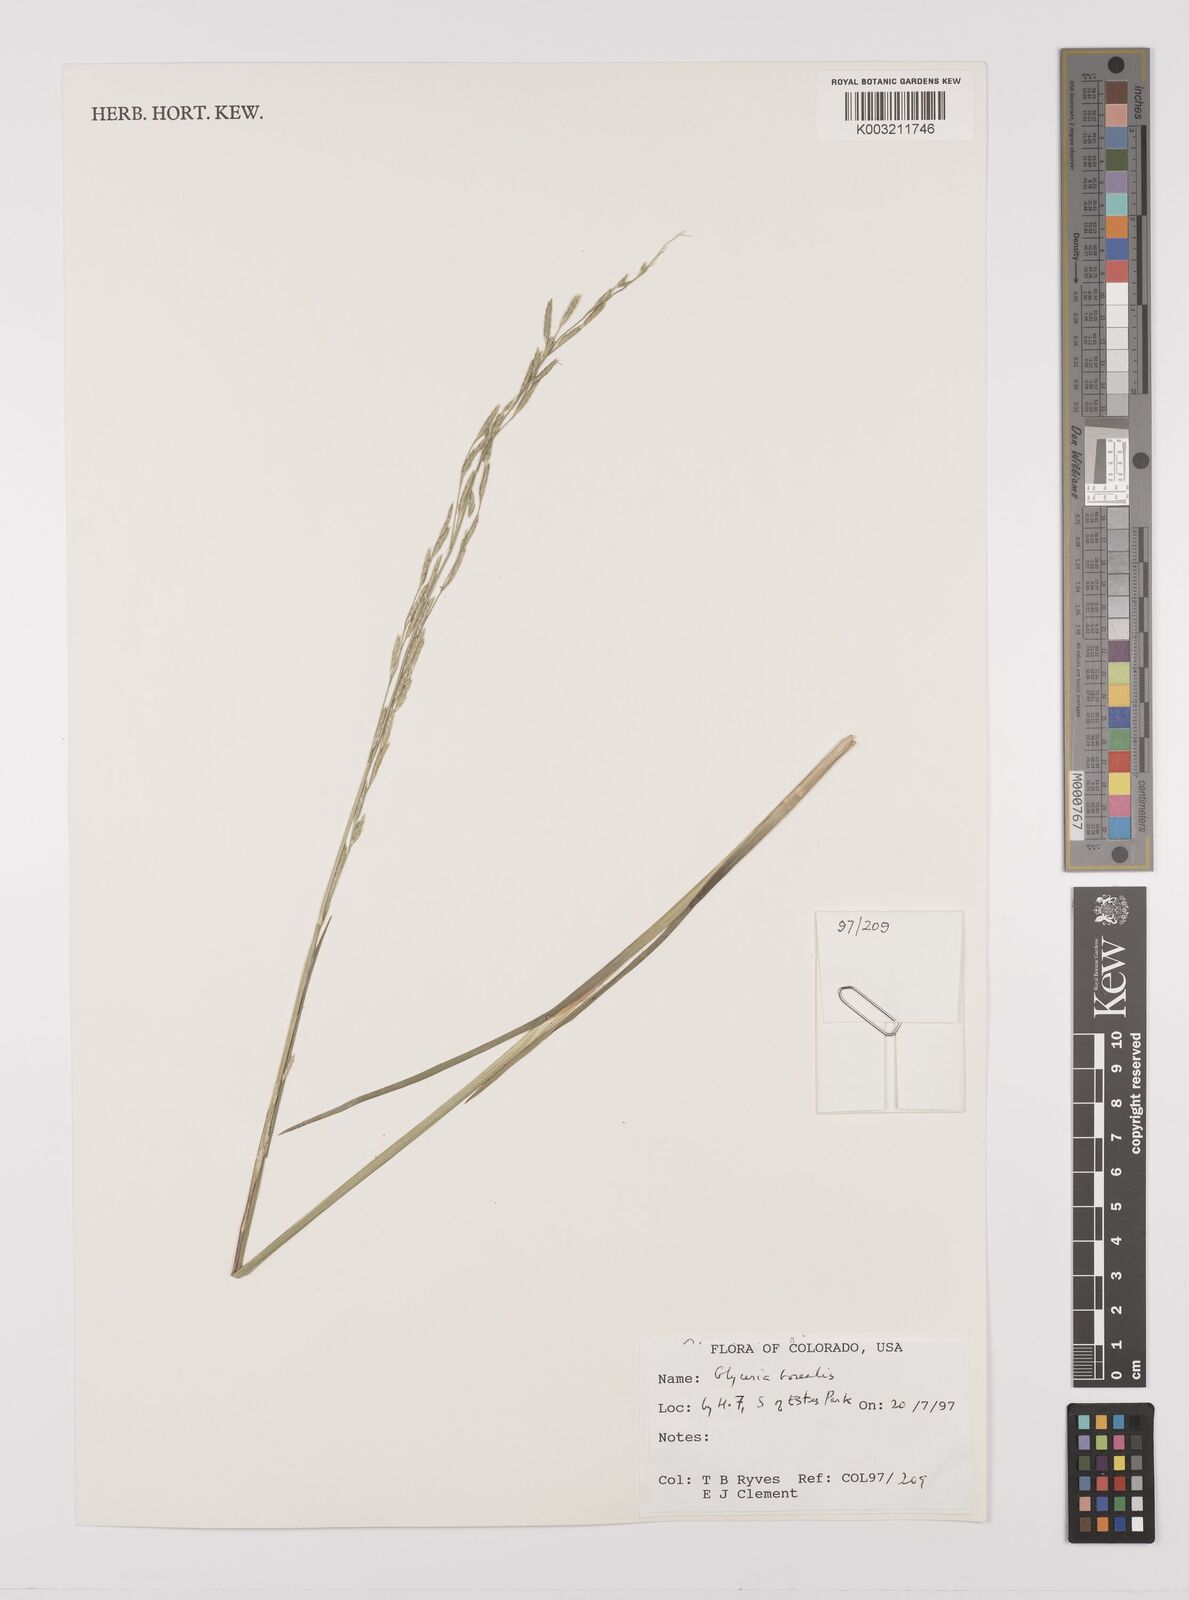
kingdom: Plantae
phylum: Tracheophyta
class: Liliopsida
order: Poales
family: Poaceae
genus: Glyceria
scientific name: Glyceria borealis
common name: Boreal glyceria
